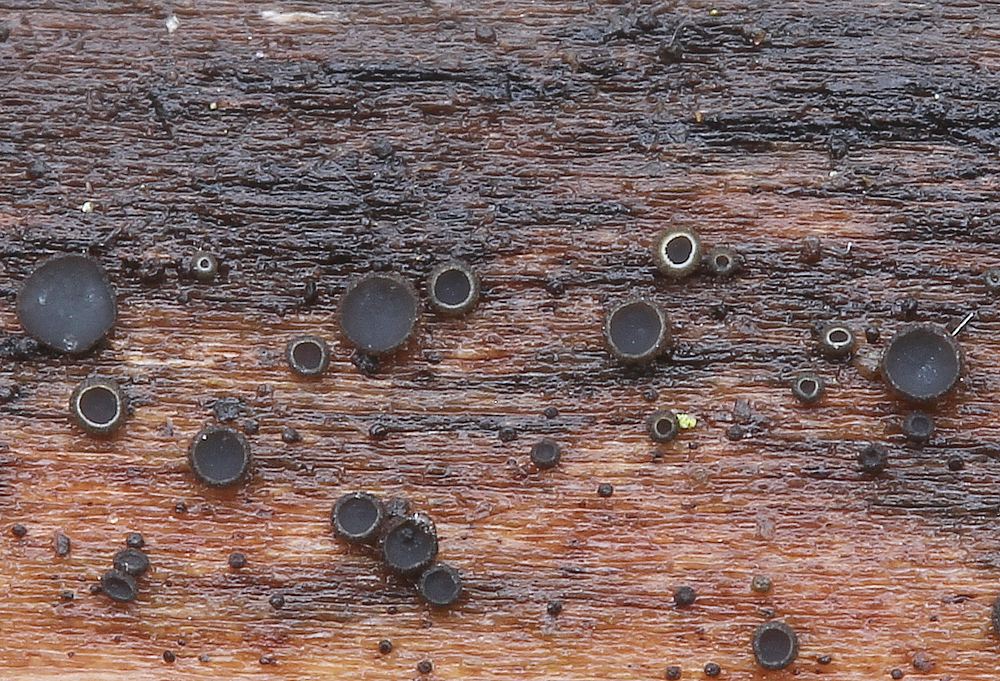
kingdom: Fungi
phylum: Ascomycota
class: Leotiomycetes
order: Helotiales
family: Mollisiaceae
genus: Mollisia
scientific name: Mollisia ligni
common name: ved-gråskive
